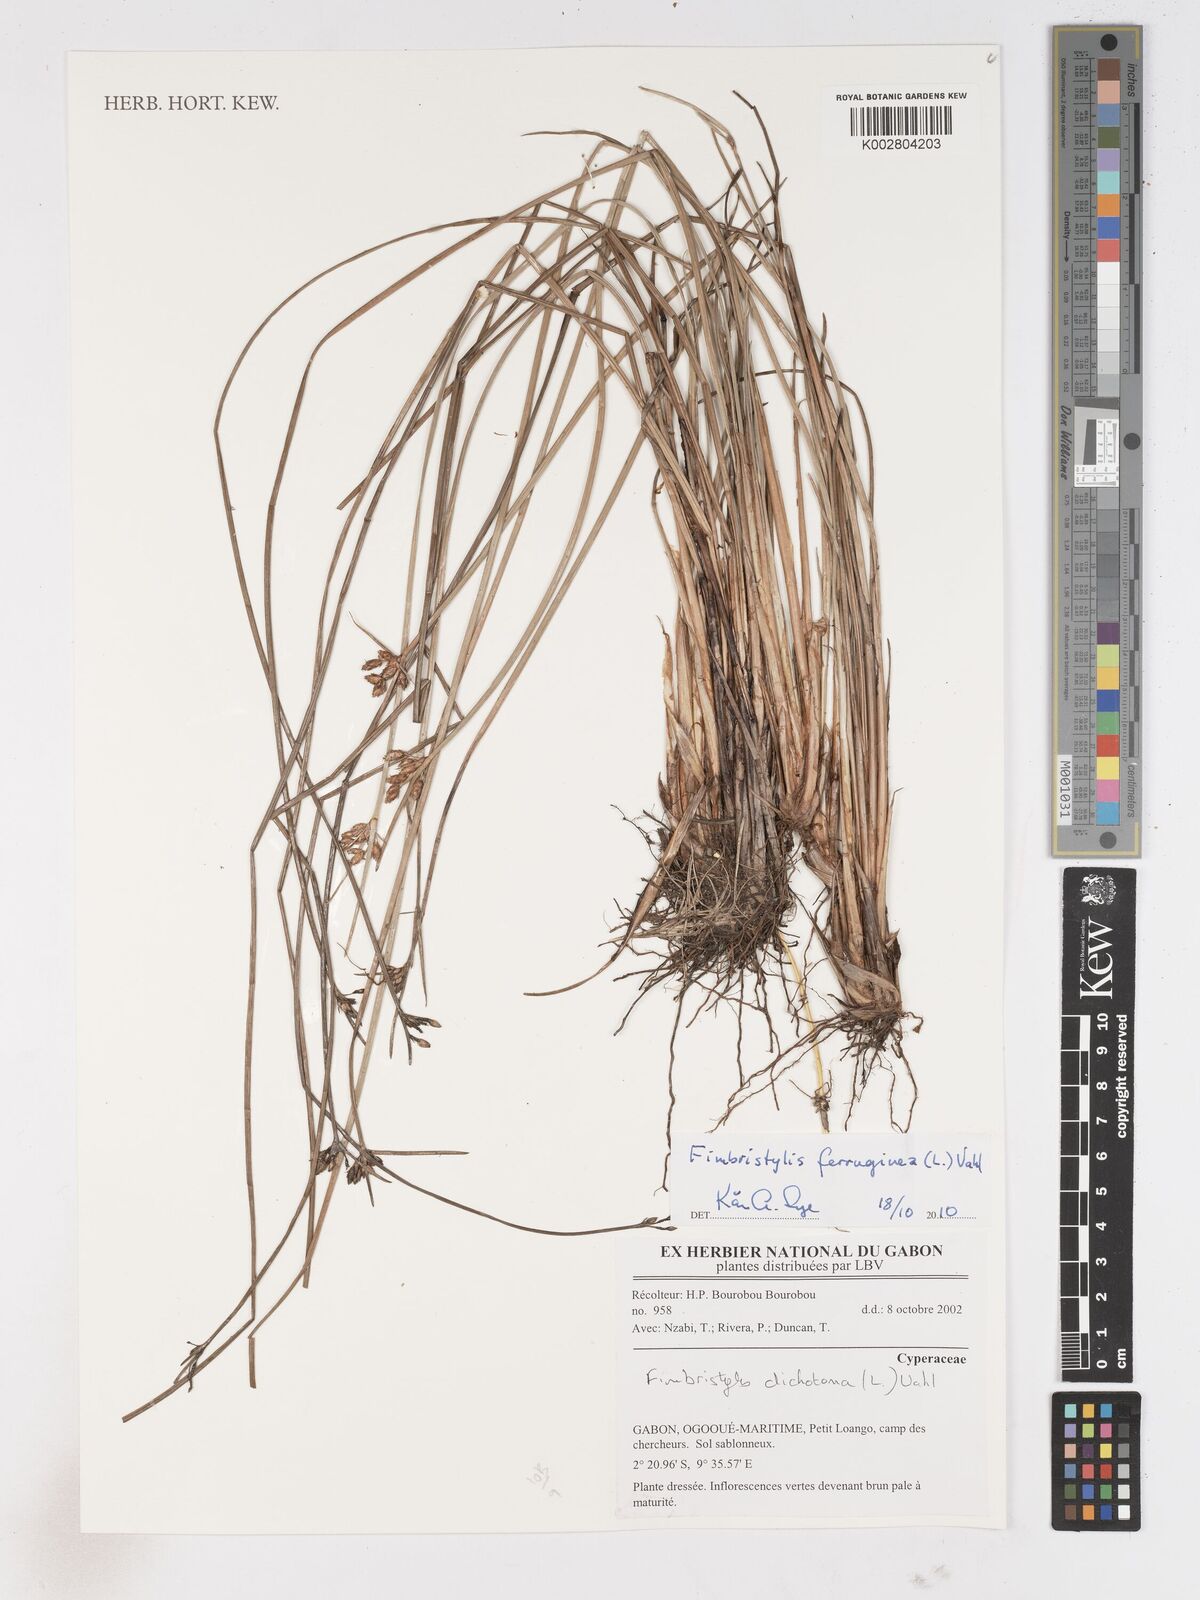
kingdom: Plantae
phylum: Tracheophyta
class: Liliopsida
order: Poales
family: Cyperaceae
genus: Fimbristylis
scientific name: Fimbristylis ferruginea
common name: West indian fimbry
